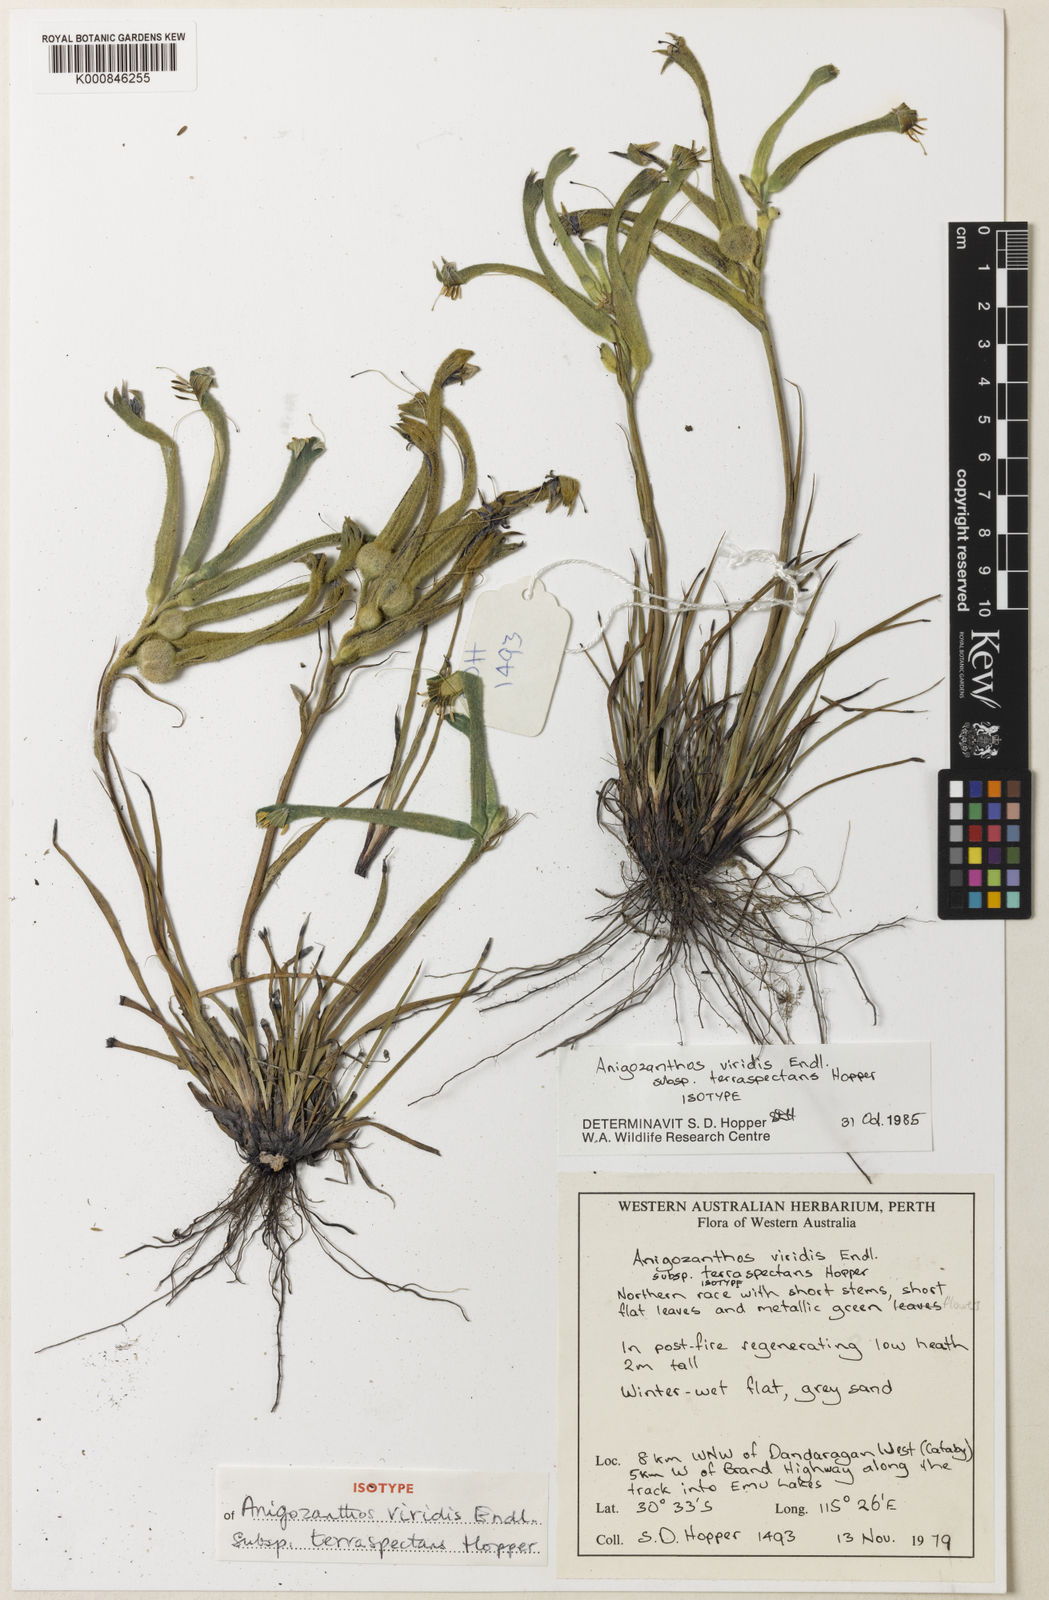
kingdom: Plantae
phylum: Tracheophyta
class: Liliopsida
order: Commelinales
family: Haemodoraceae
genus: Anigozanthos
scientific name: Anigozanthos viridis
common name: Green kangaroo-paw
